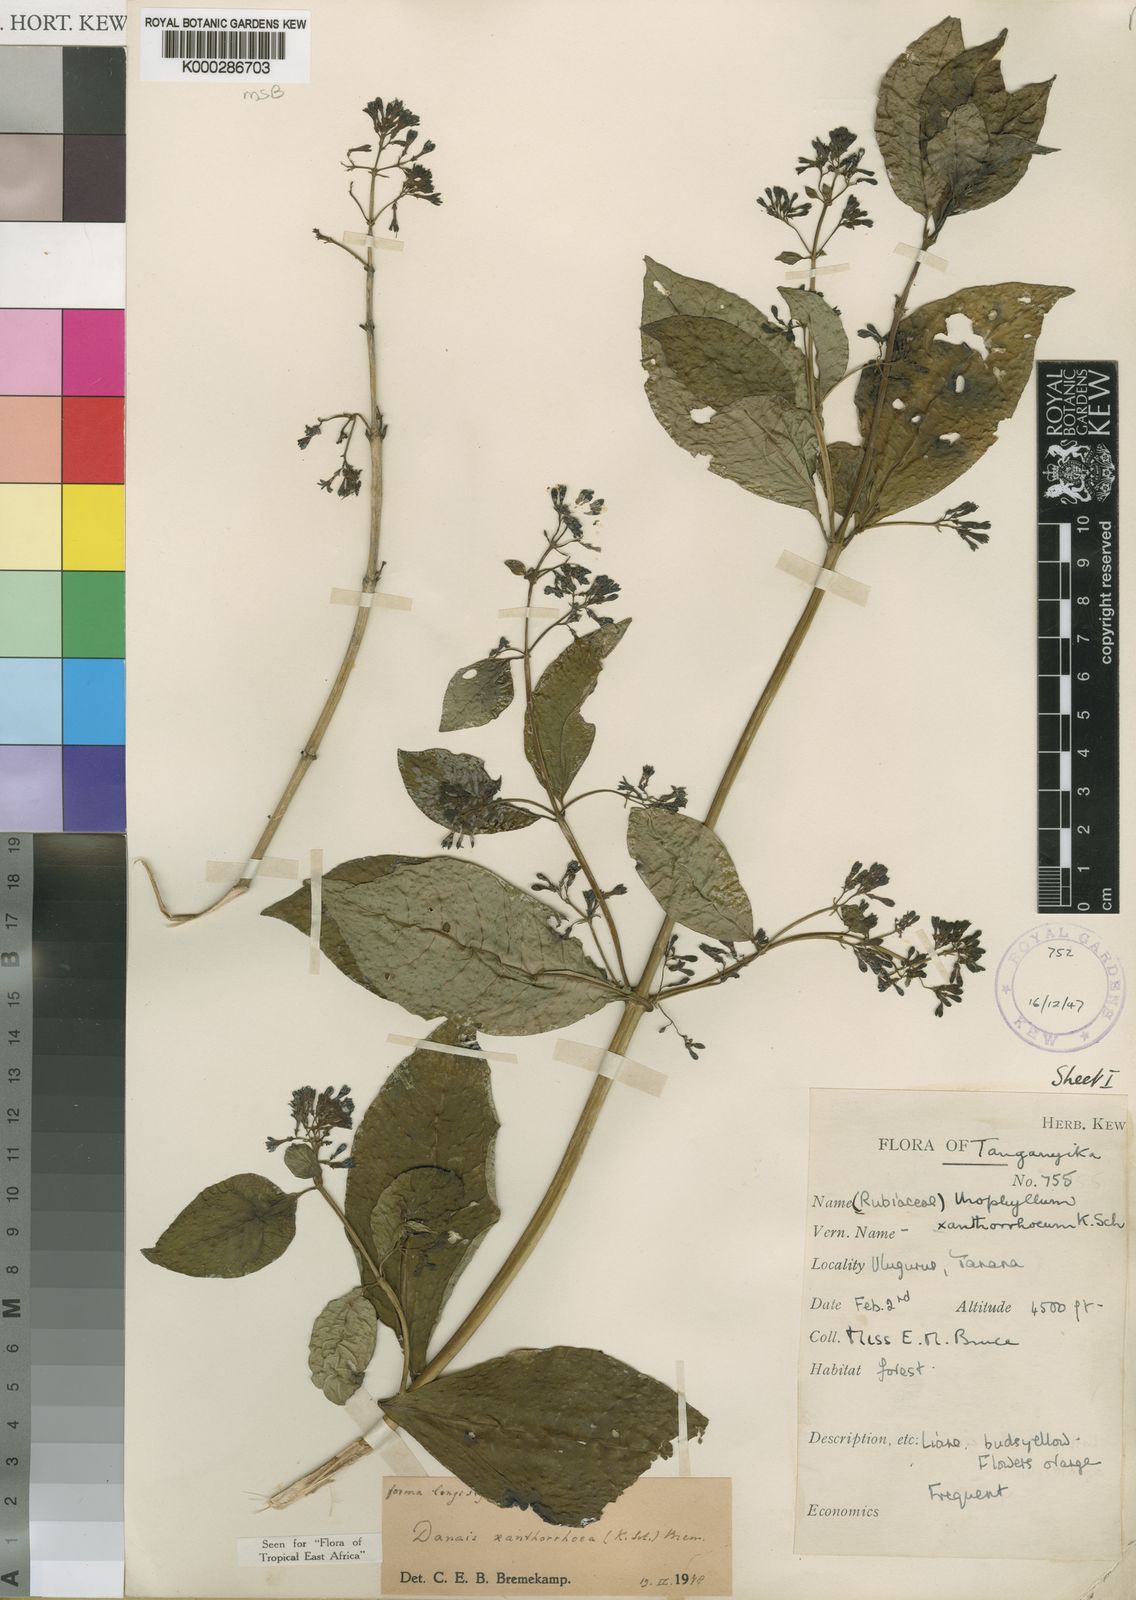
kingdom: Plantae
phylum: Tracheophyta
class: Magnoliopsida
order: Gentianales
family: Rubiaceae
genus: Danais
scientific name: Danais xanthorrhoea
